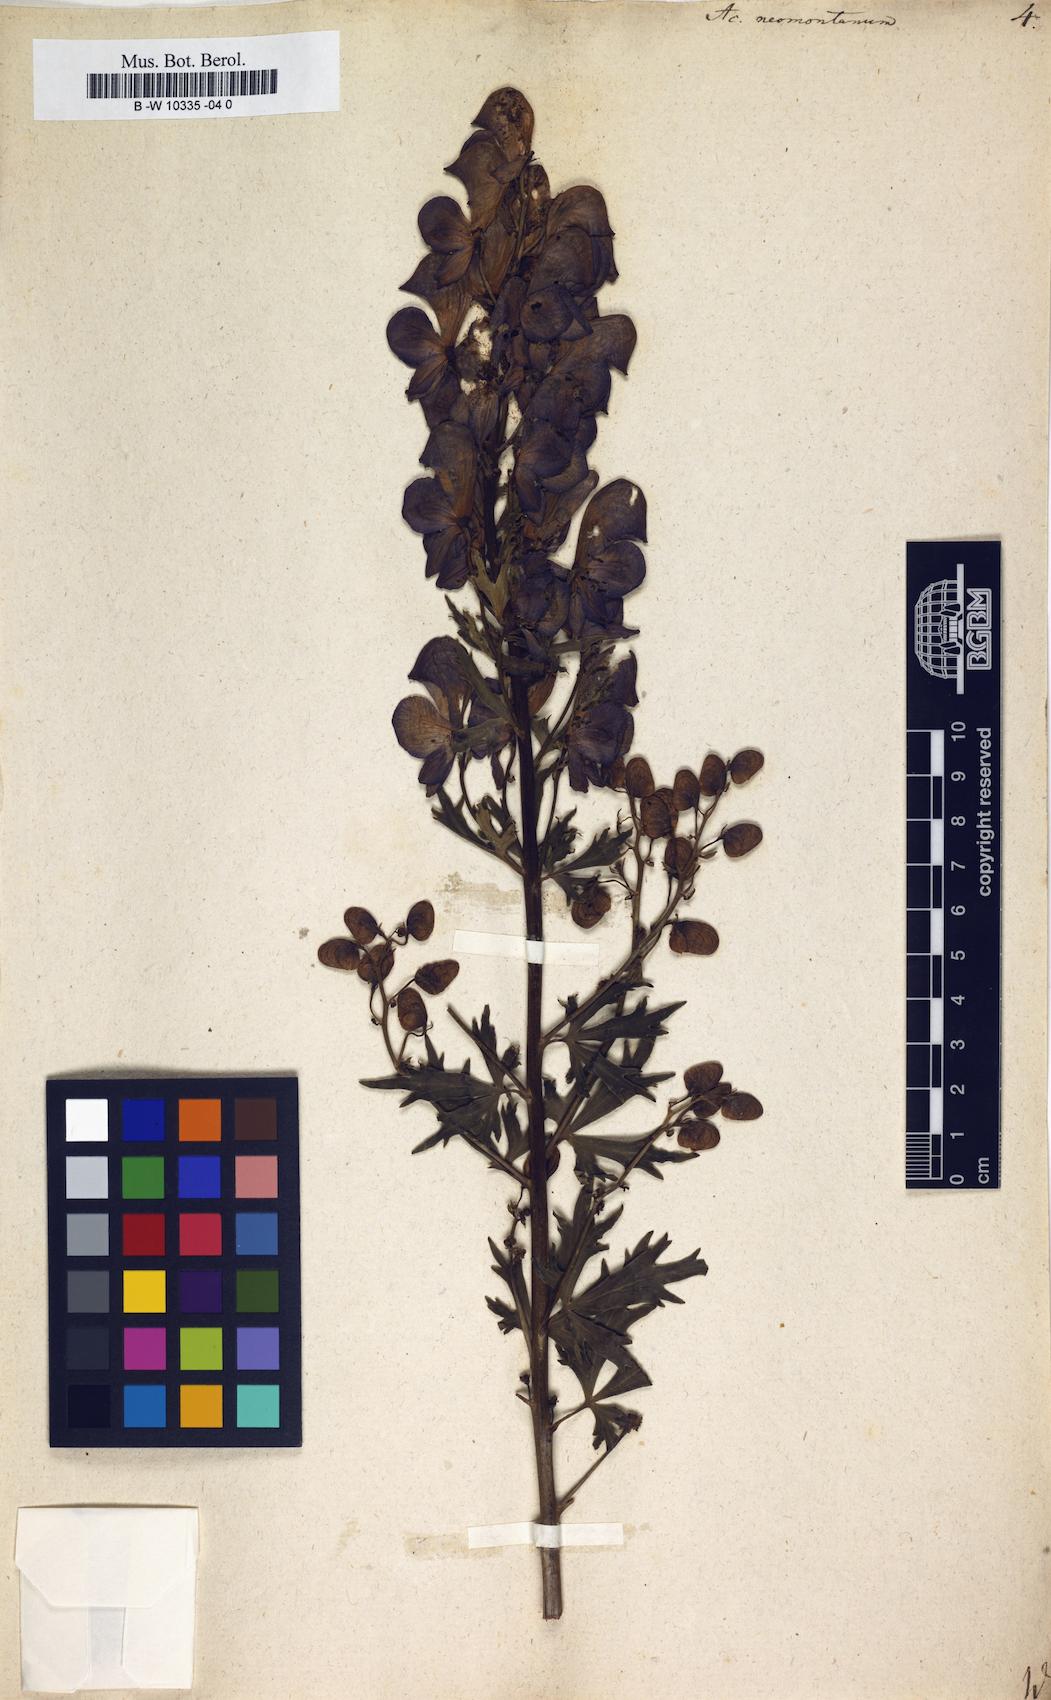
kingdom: Plantae
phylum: Tracheophyta
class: Magnoliopsida
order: Ranunculales
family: Ranunculaceae
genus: Aconitum
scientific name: Aconitum napellus
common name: Garden monkshood
